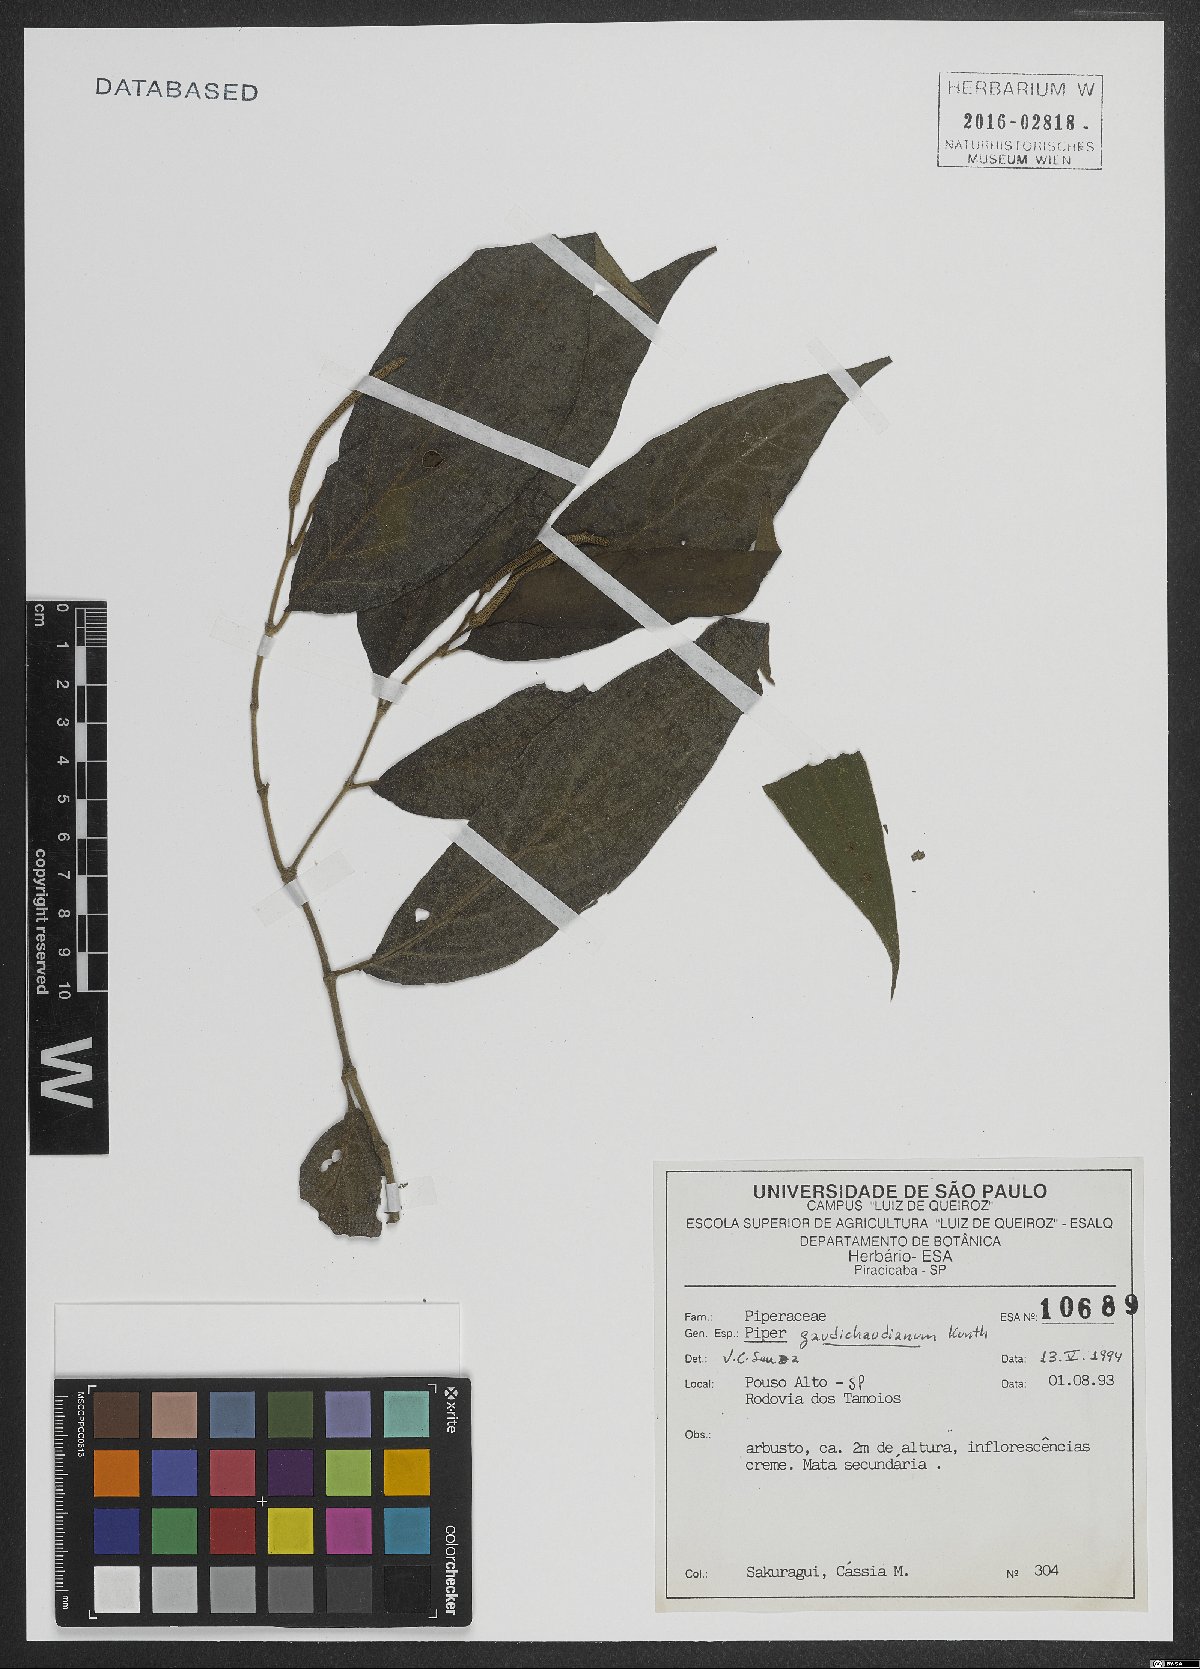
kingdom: Plantae
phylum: Tracheophyta
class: Magnoliopsida
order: Piperales
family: Piperaceae
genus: Piper
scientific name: Piper gaudichaudianum
